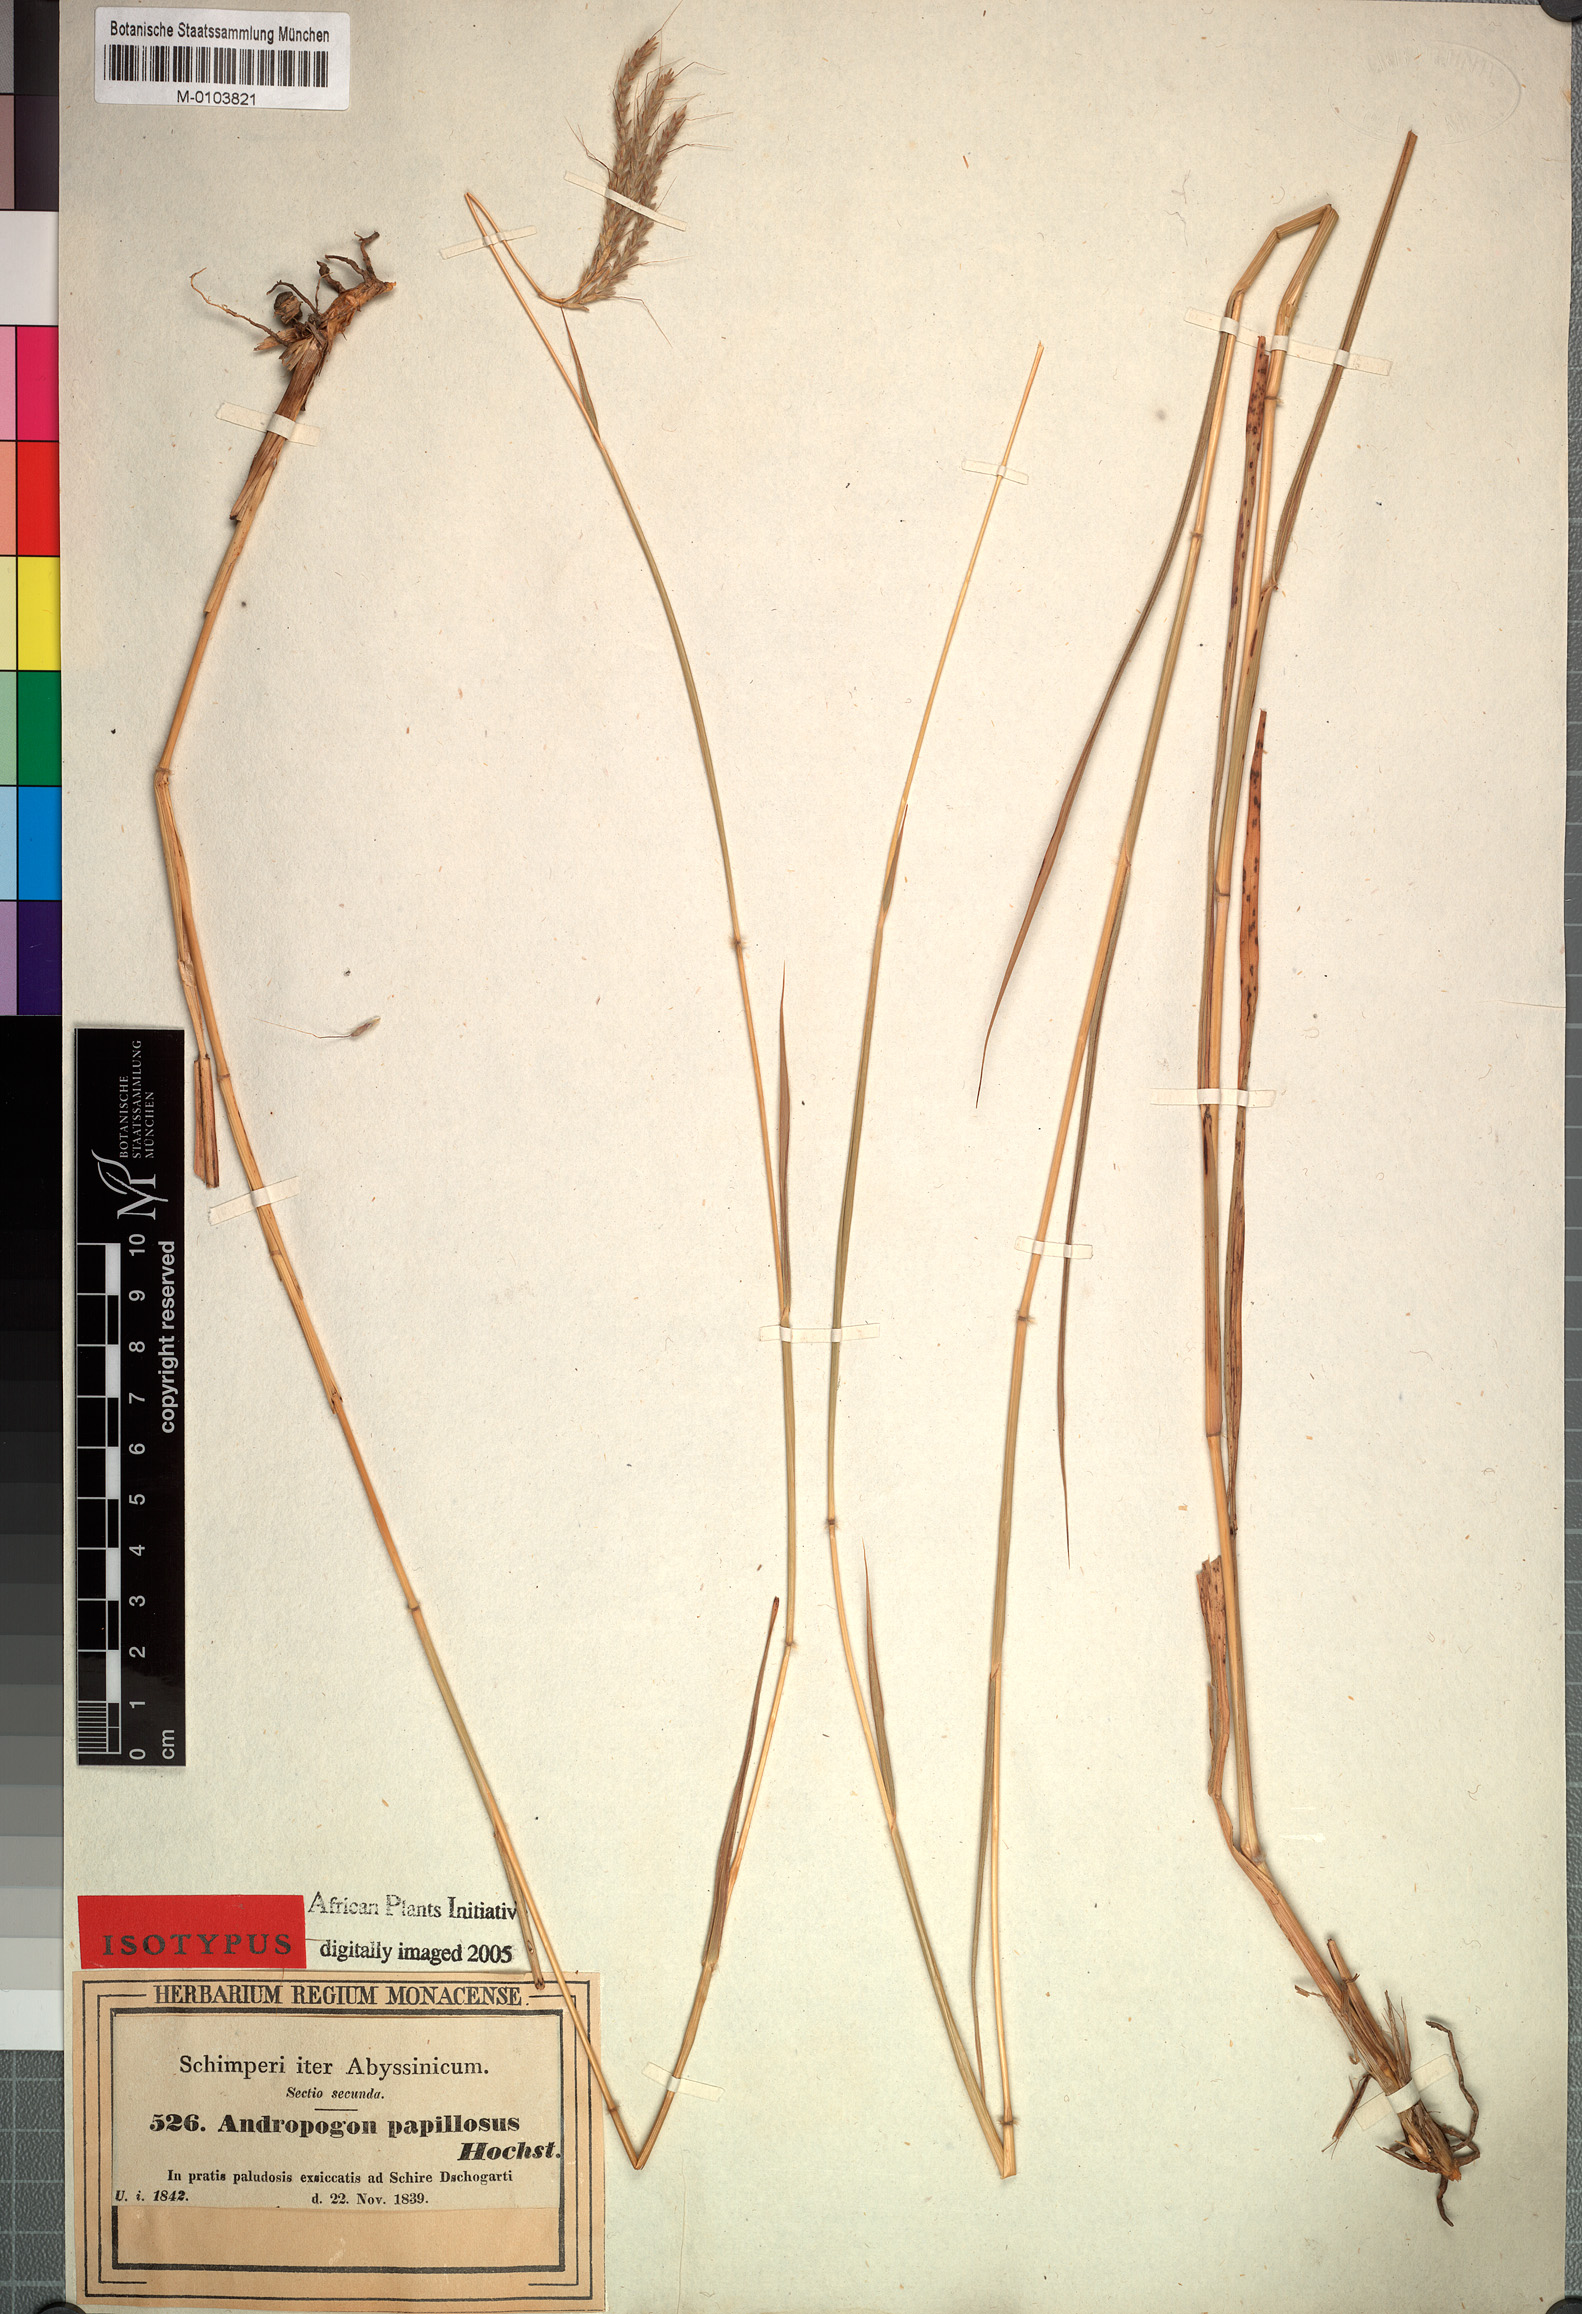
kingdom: Plantae
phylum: Tracheophyta
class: Liliopsida
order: Poales
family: Poaceae
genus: Dichanthium
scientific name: Dichanthium annulatum
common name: Kleberg's bluestem
